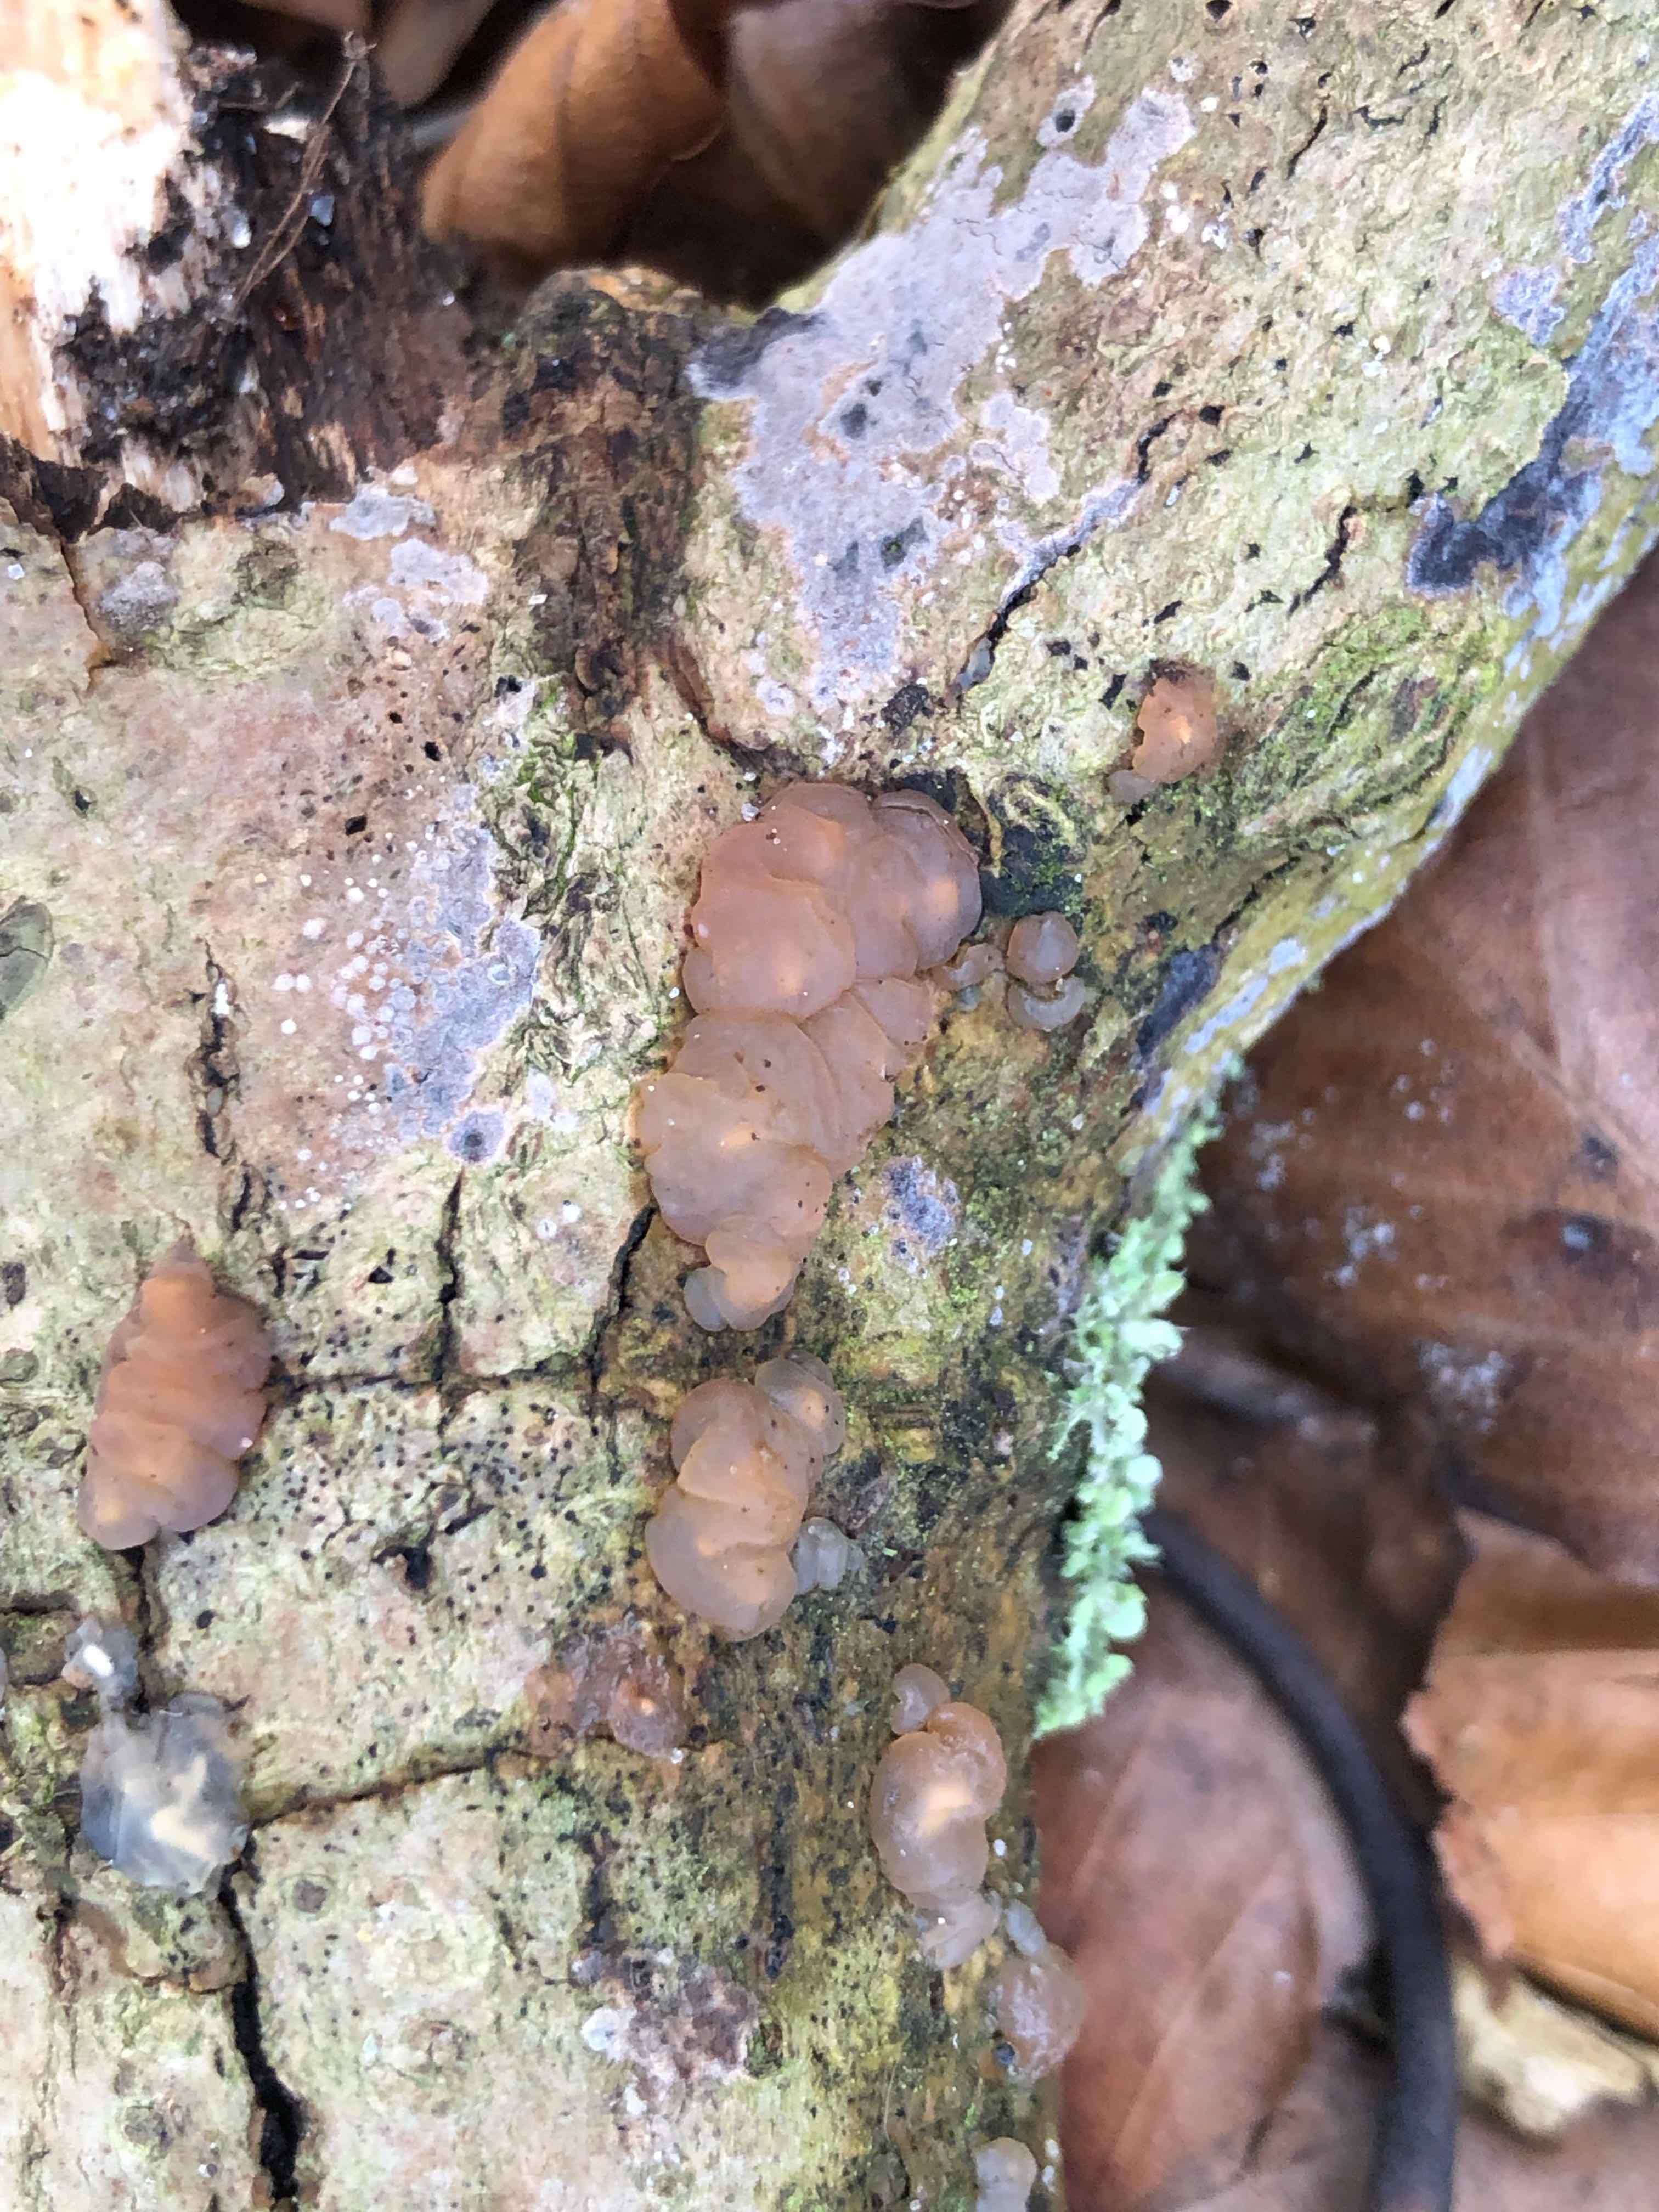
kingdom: Fungi
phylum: Basidiomycota
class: Agaricomycetes
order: Auriculariales
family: Hyaloriaceae
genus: Myxarium
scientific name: Myxarium
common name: bævretop
